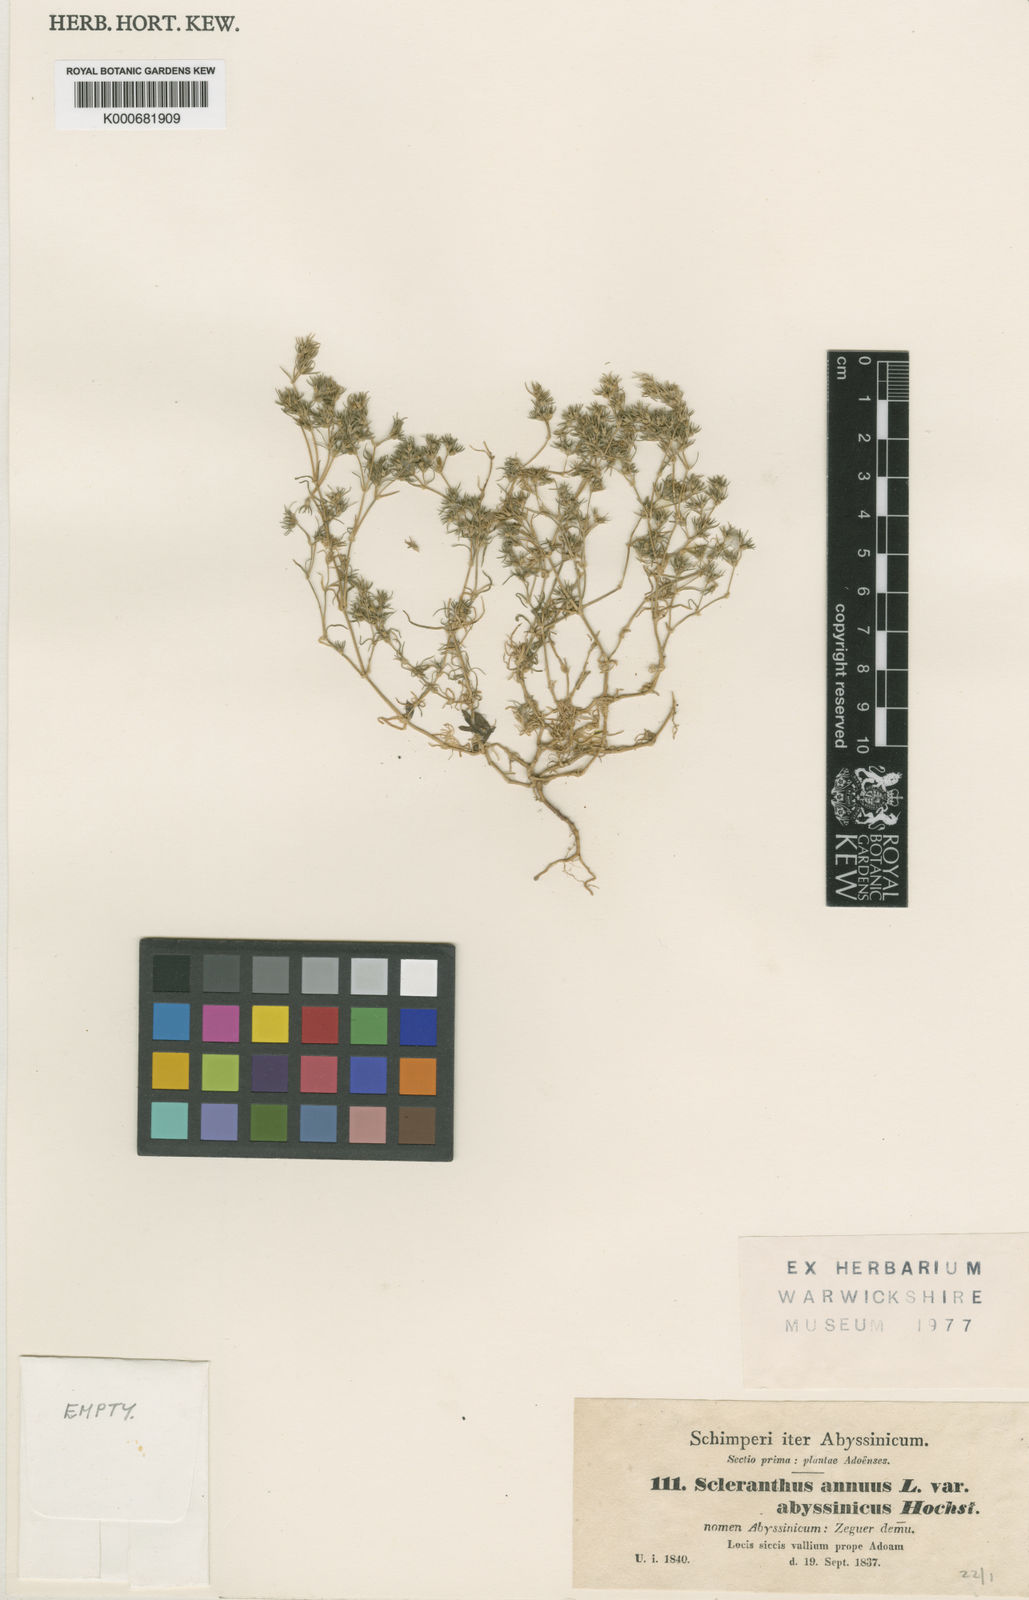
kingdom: Plantae
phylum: Tracheophyta
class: Magnoliopsida
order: Caryophyllales
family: Caryophyllaceae
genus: Scleranthus
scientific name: Scleranthus annuus
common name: Annual knawel
